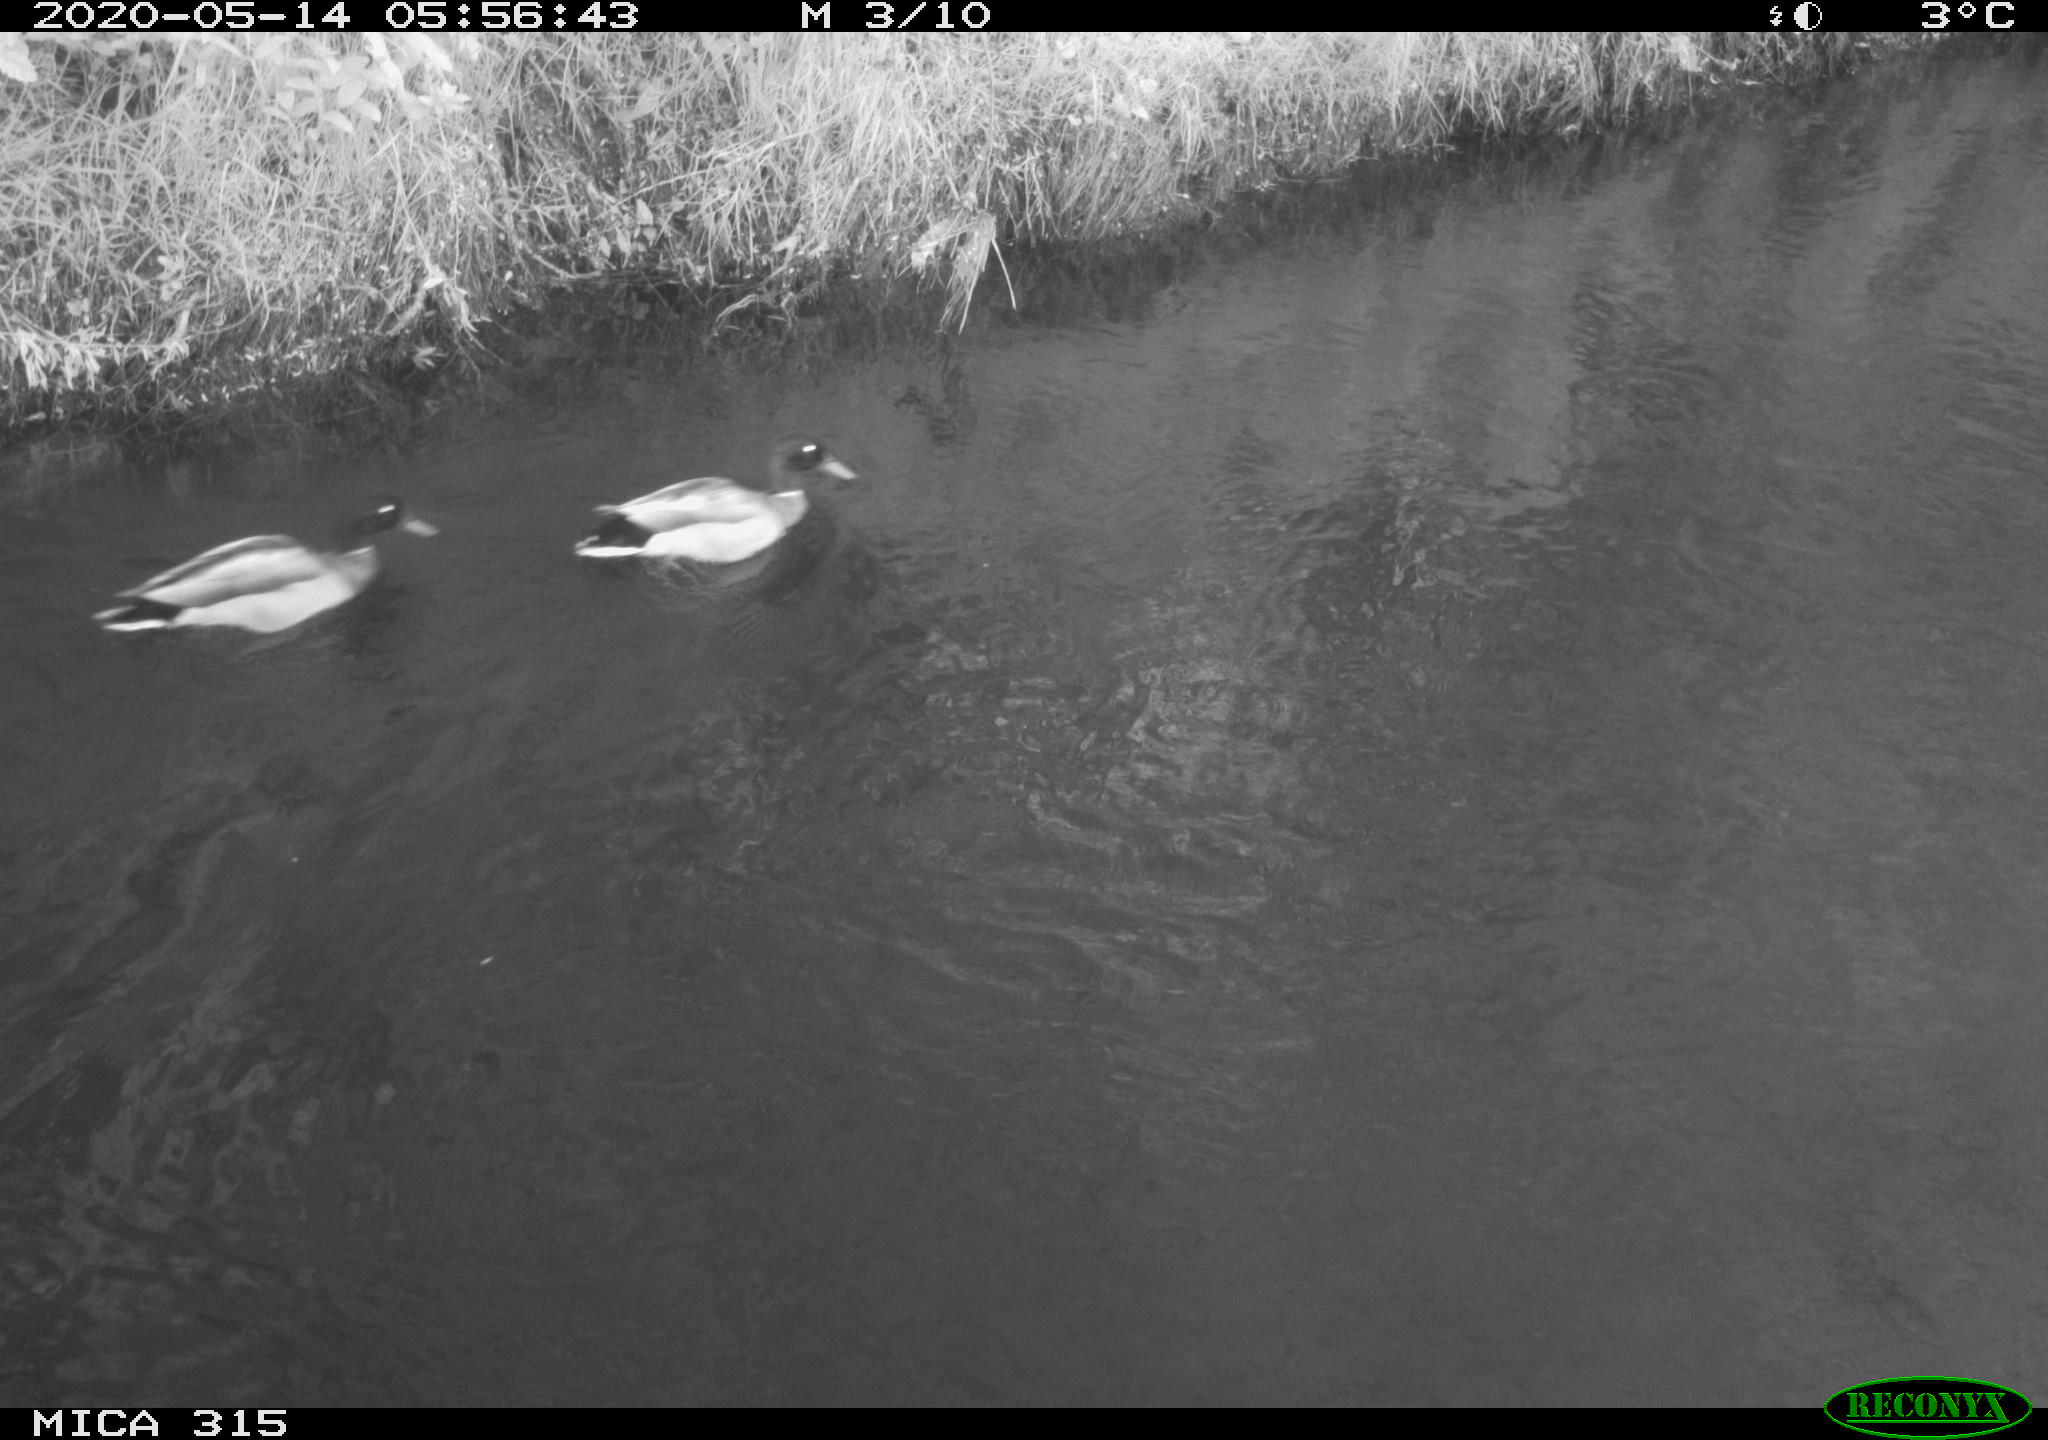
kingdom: Animalia
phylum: Chordata
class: Aves
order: Anseriformes
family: Anatidae
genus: Anas
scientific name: Anas platyrhynchos
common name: Mallard
